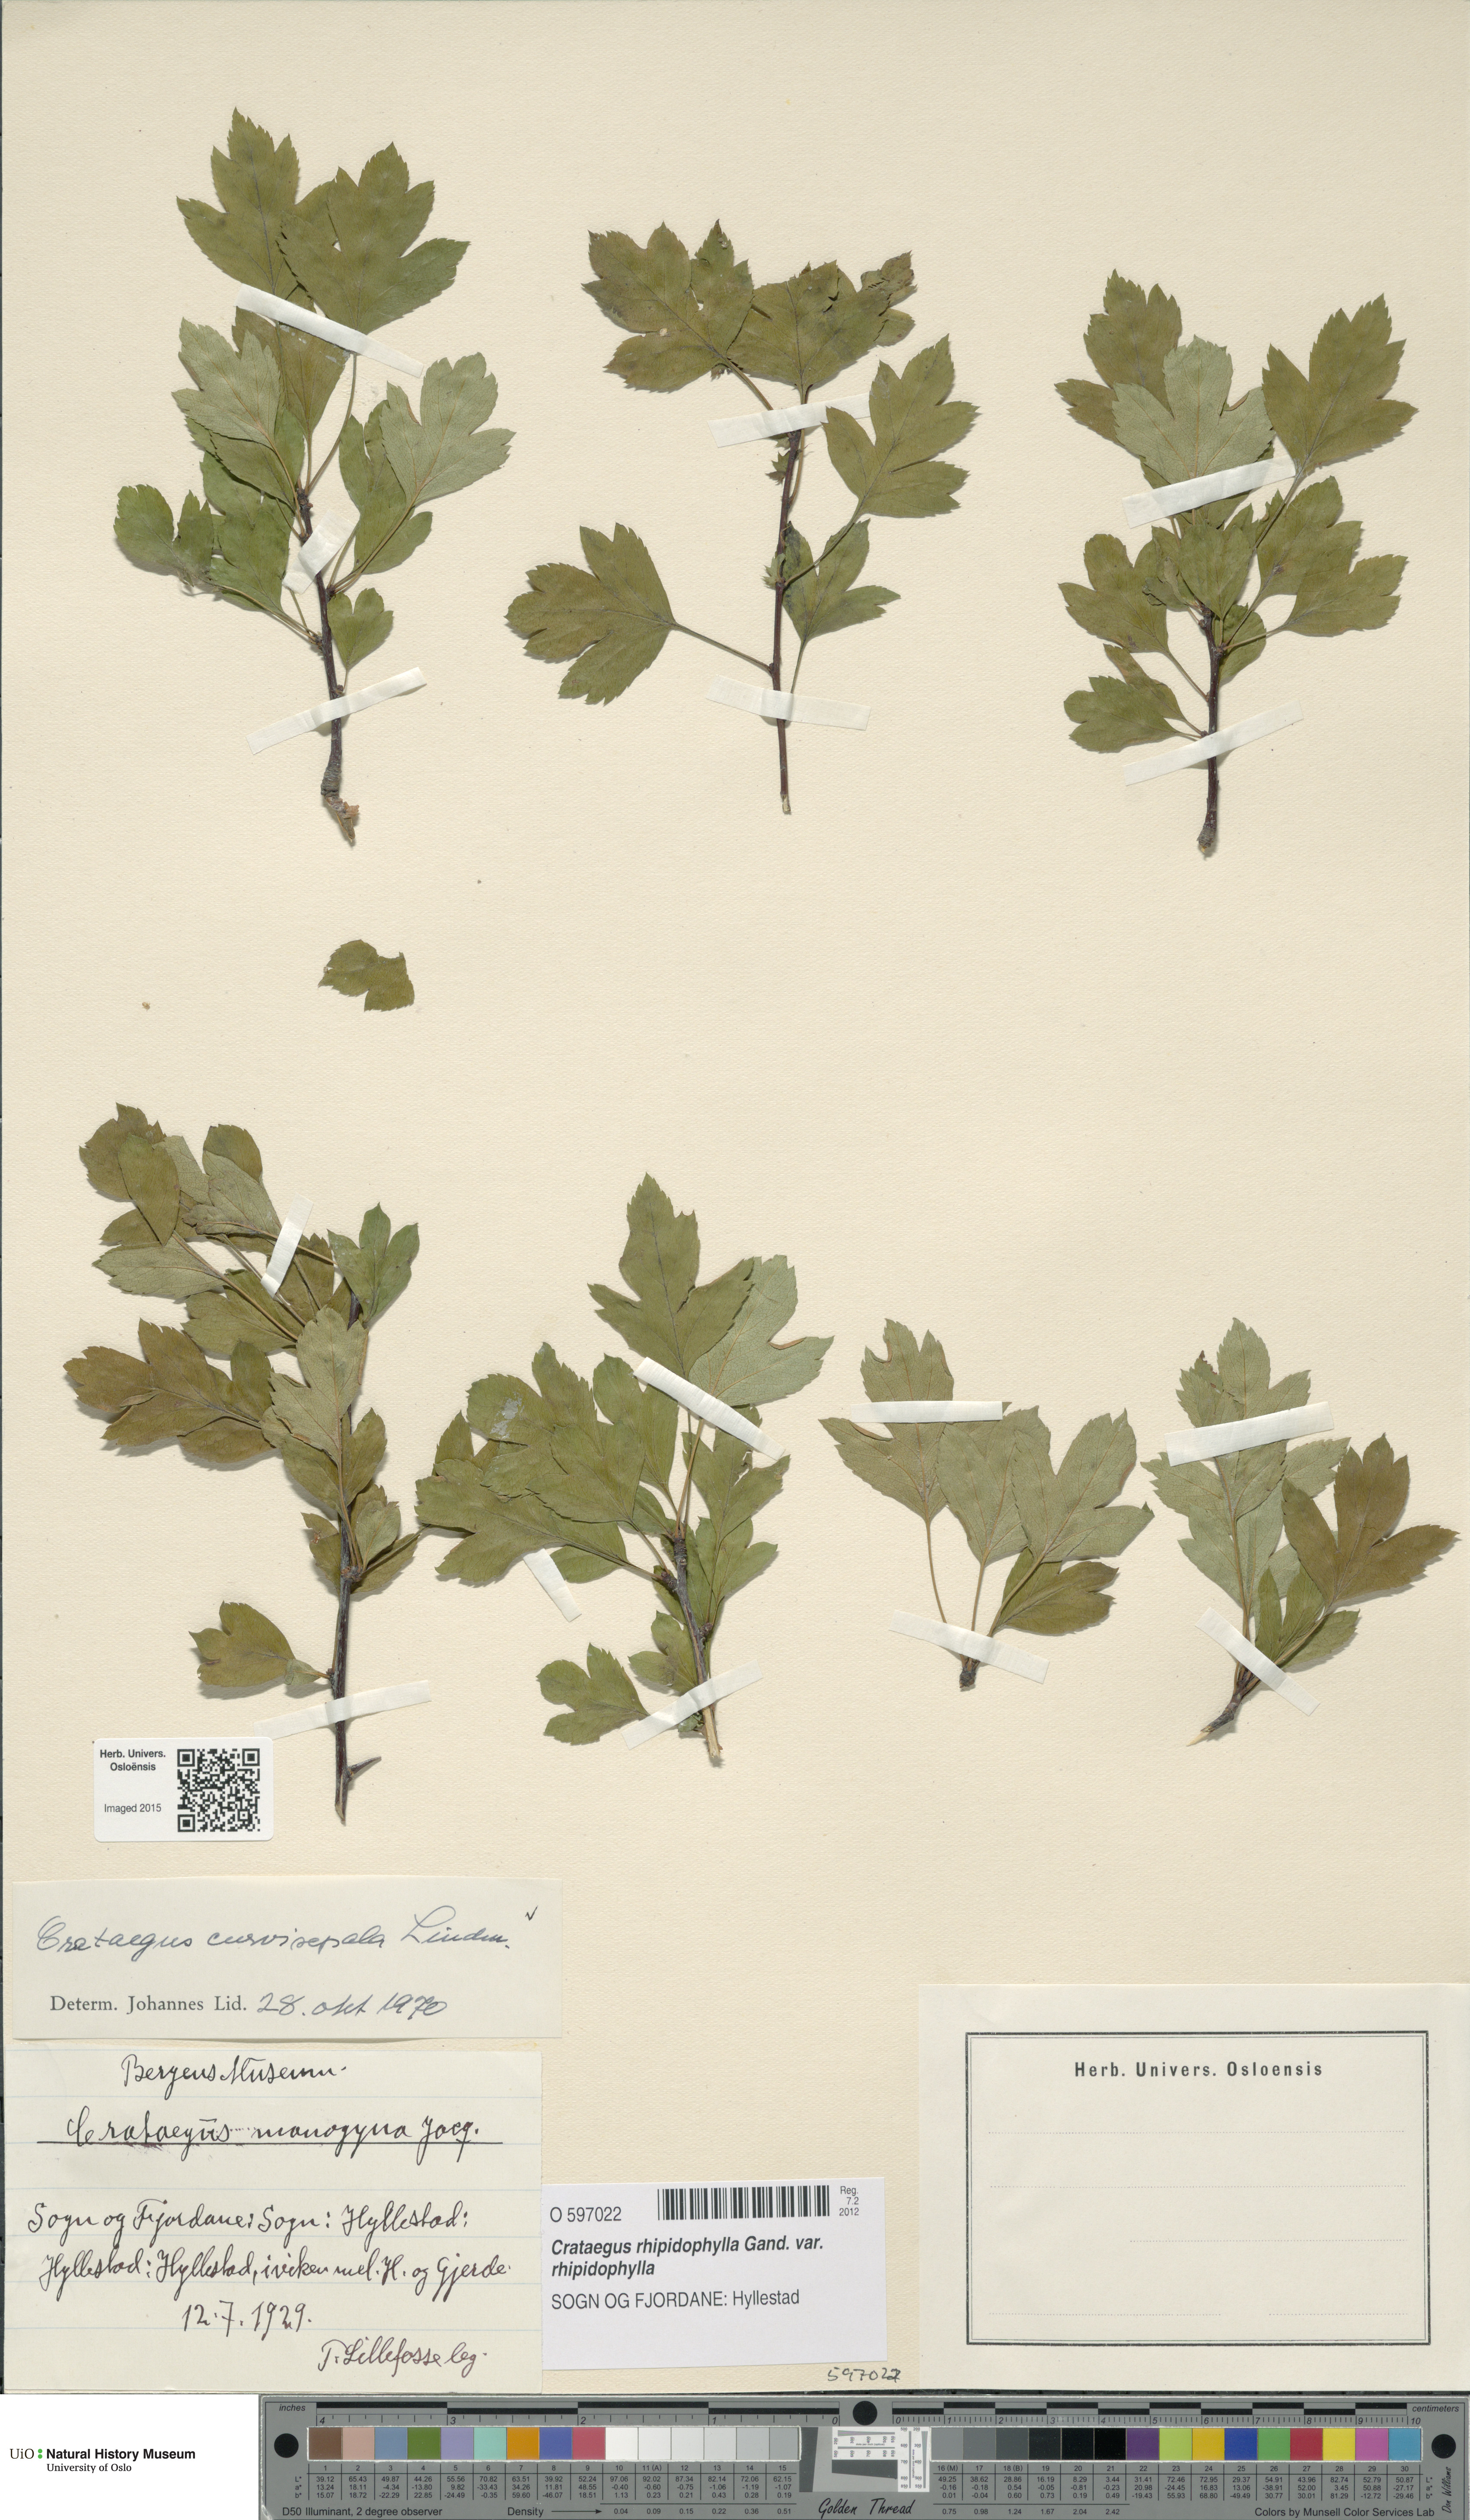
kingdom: Plantae
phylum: Tracheophyta
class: Magnoliopsida
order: Rosales
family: Rosaceae
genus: Crataegus
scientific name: Crataegus rhipidophylla
